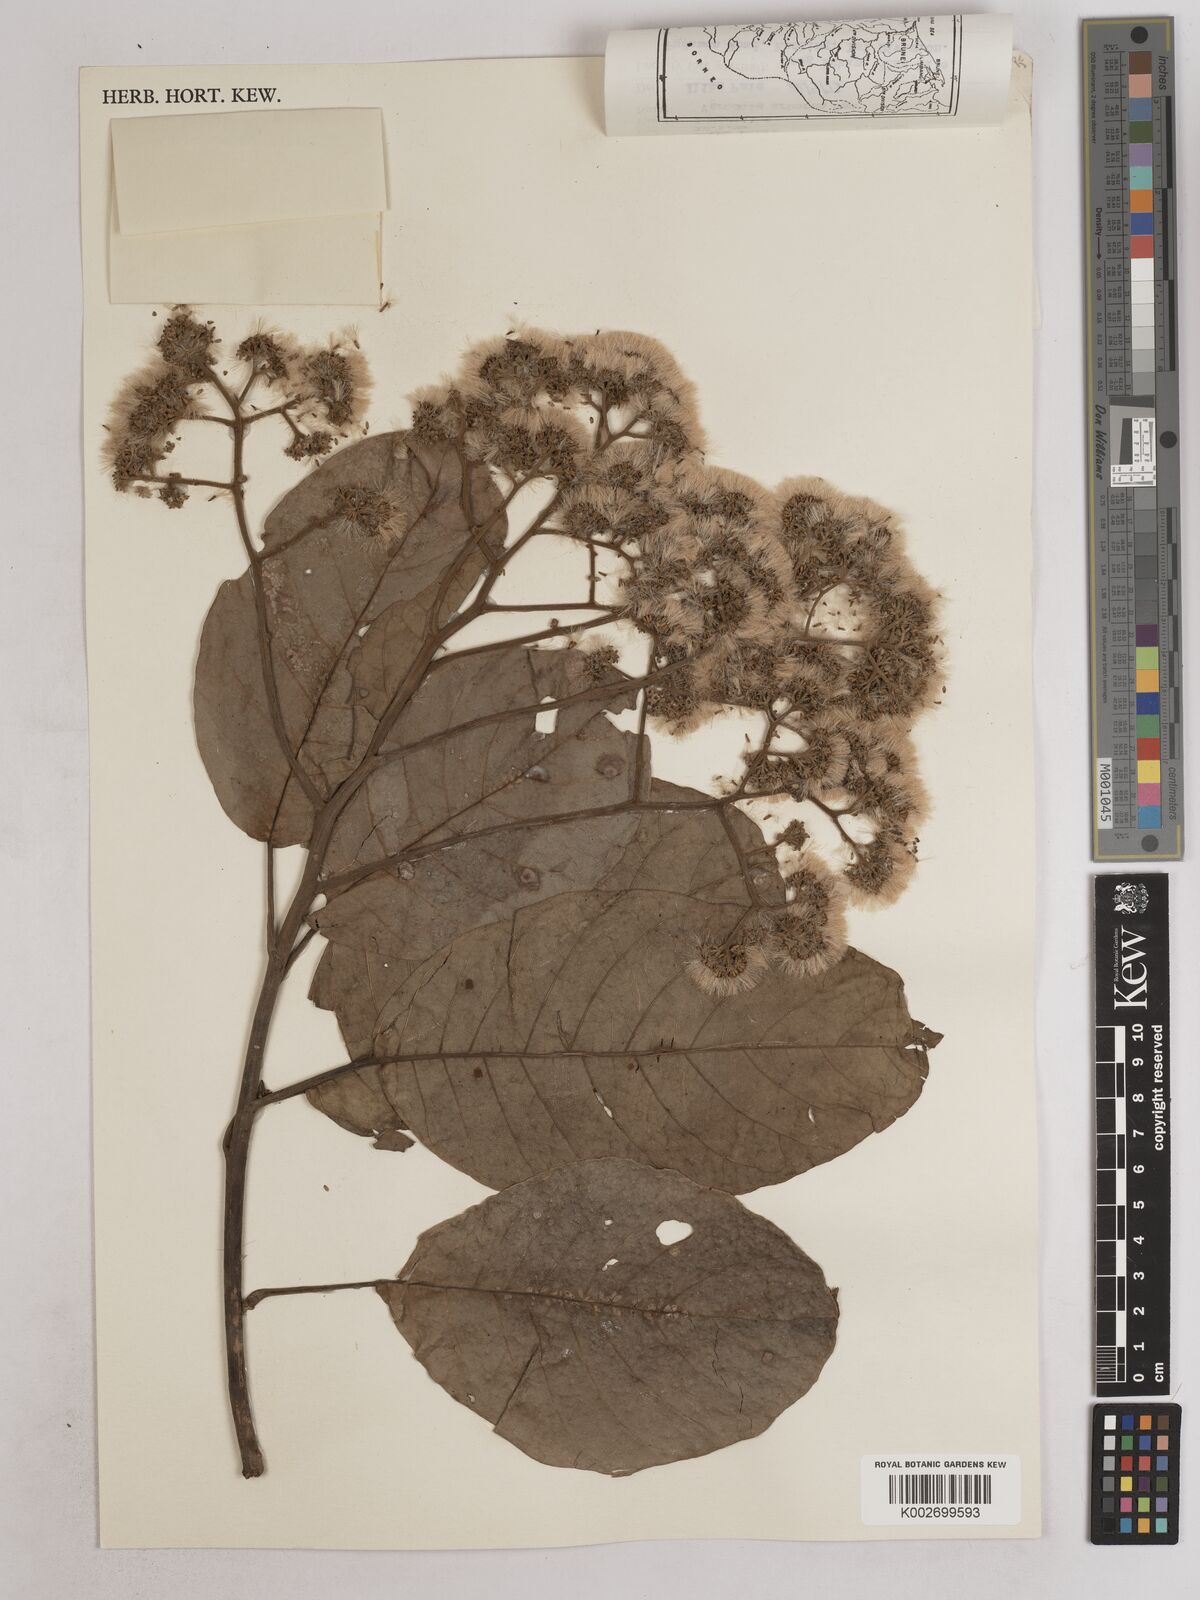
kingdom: Plantae
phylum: Tracheophyta
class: Magnoliopsida
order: Asterales
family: Asteraceae
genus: Strobocalyx
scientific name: Strobocalyx arborea
